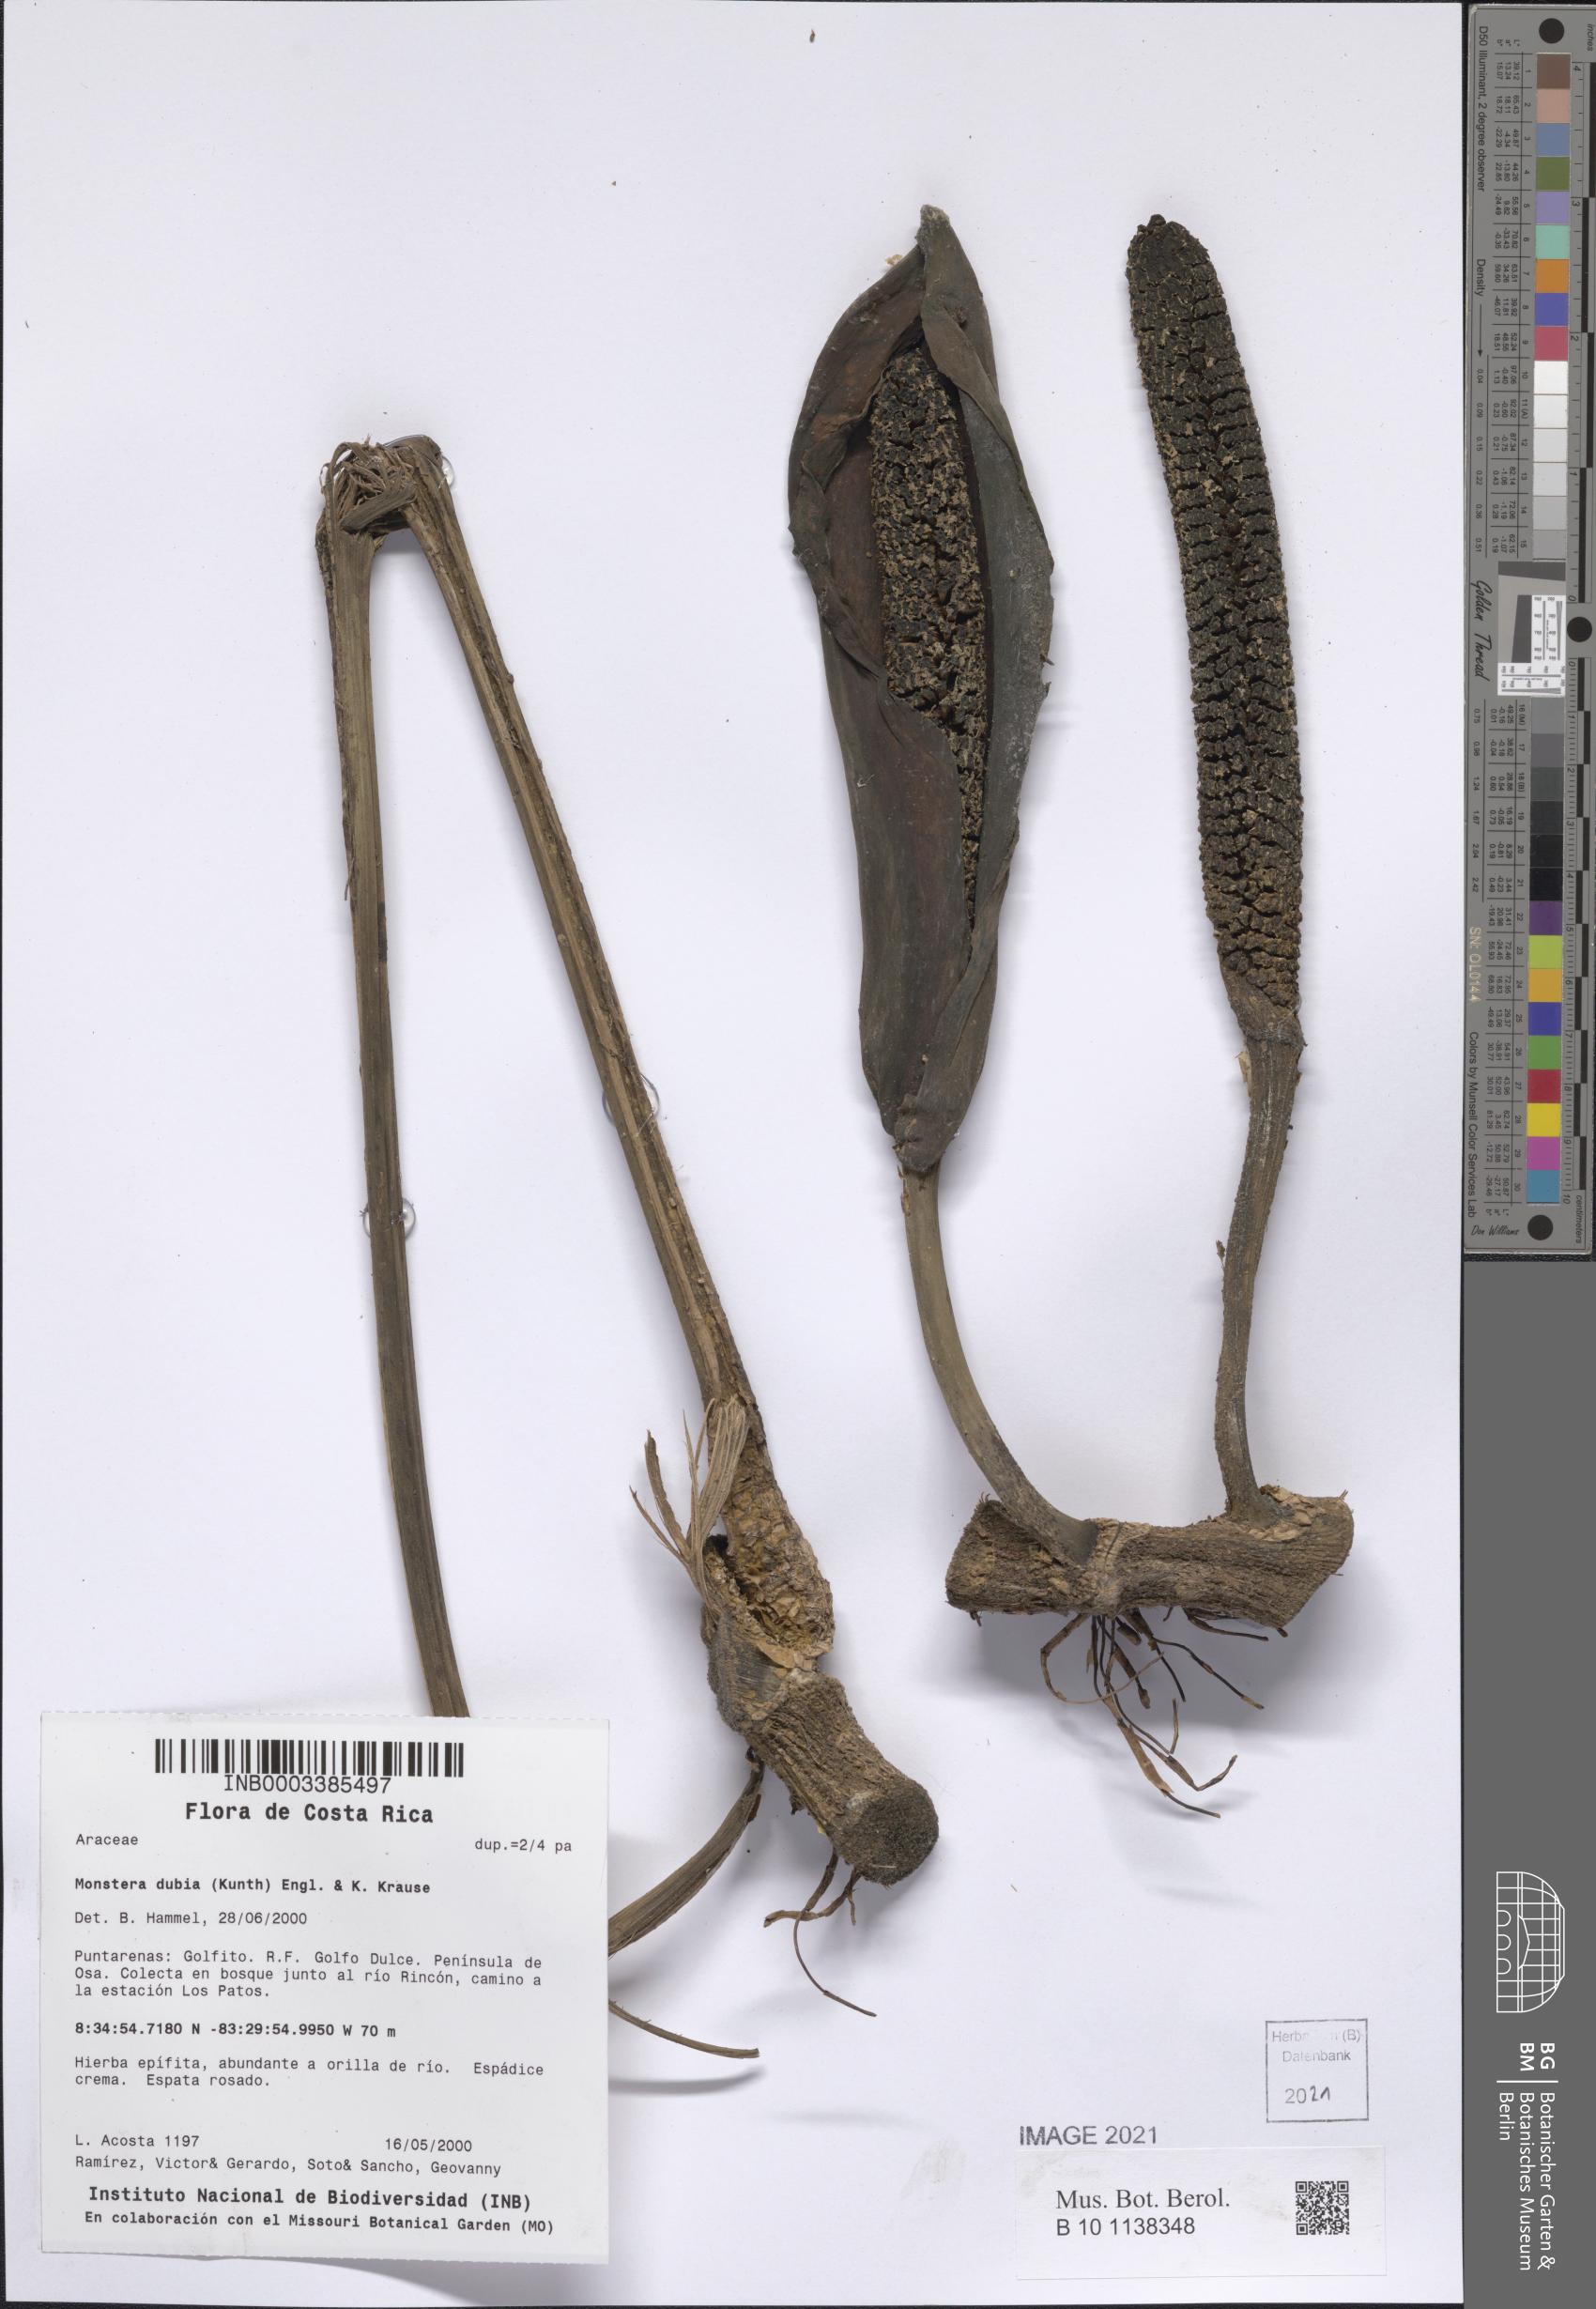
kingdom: Plantae
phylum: Tracheophyta
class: Liliopsida
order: Alismatales
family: Araceae
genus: Monstera
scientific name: Monstera dubia
